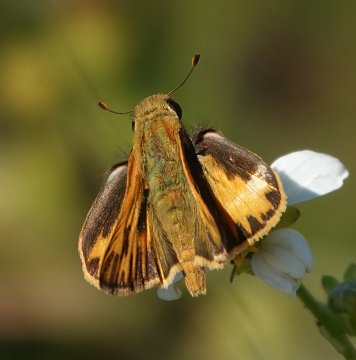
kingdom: Animalia
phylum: Arthropoda
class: Insecta
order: Lepidoptera
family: Hesperiidae
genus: Hylephila
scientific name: Hylephila phyleus
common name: Fiery Skipper
